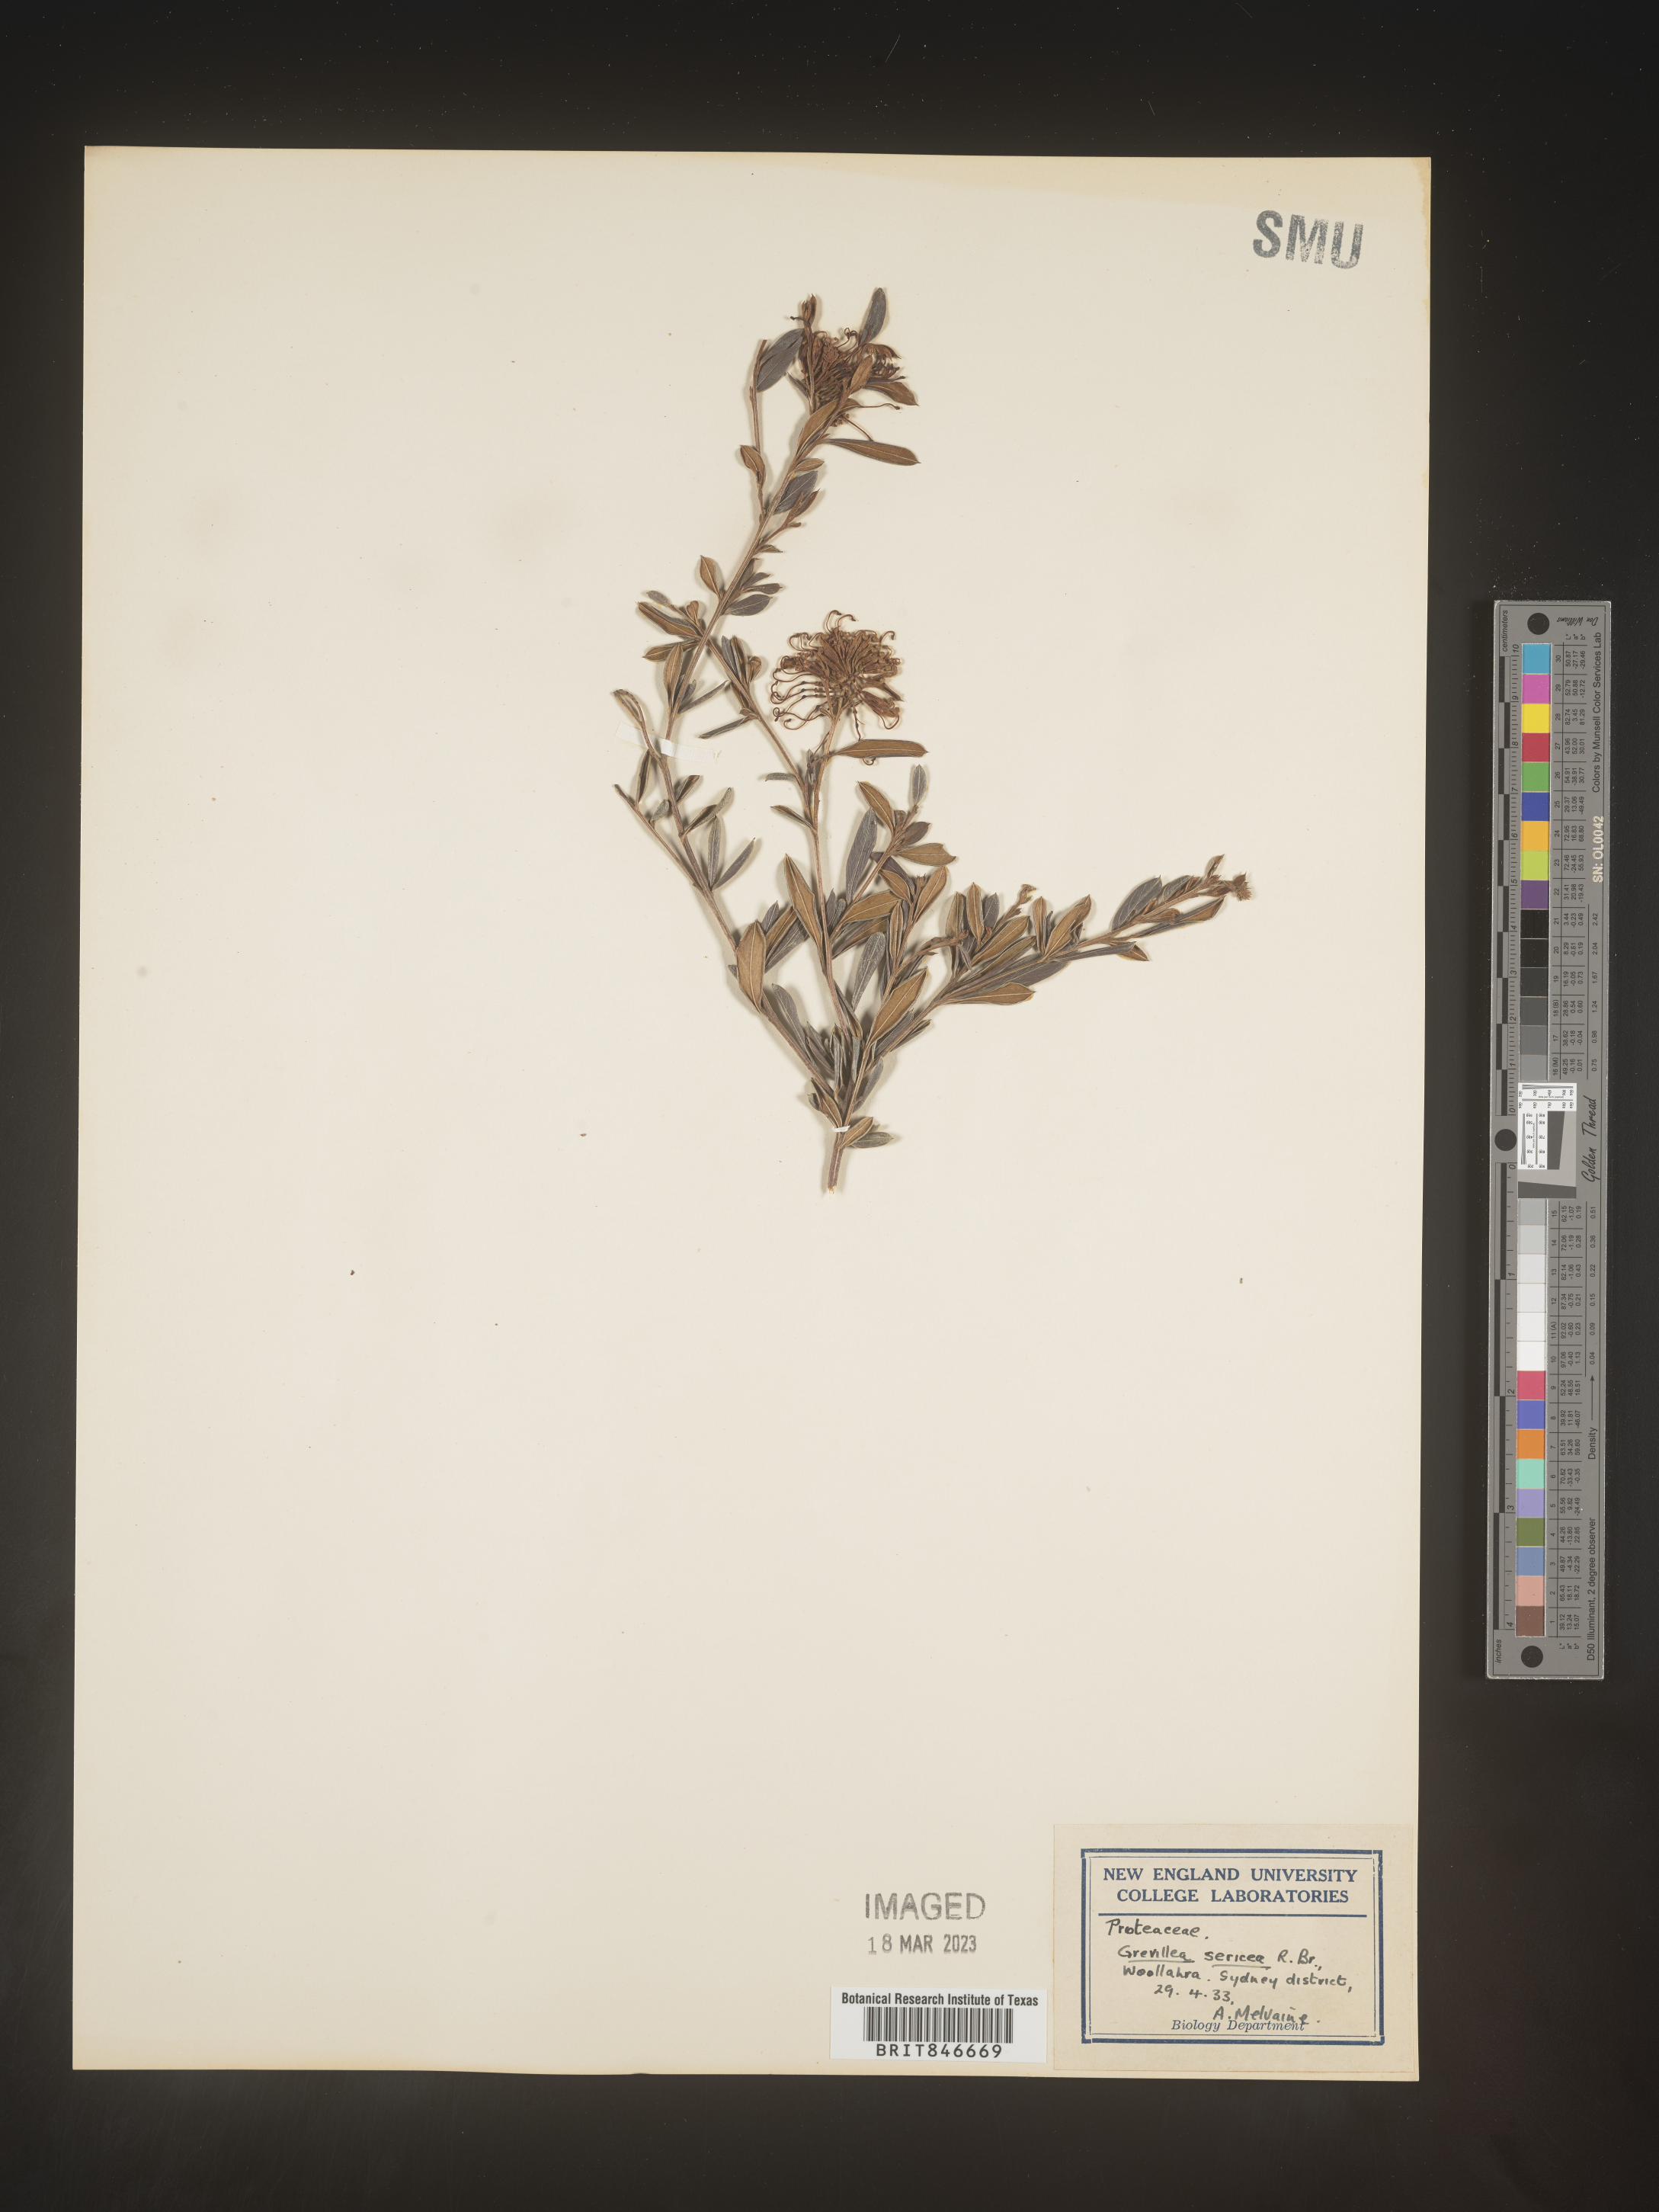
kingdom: Plantae
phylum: Tracheophyta
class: Magnoliopsida
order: Proteales
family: Proteaceae
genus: Grevillea
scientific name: Grevillea
